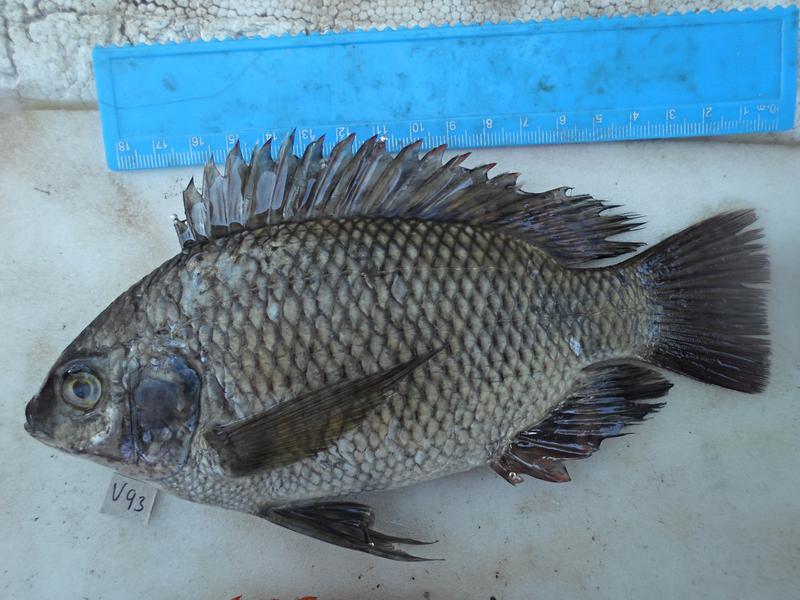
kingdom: Animalia
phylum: Chordata
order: Perciformes
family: Cichlidae
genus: Oreochromis
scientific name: Oreochromis variabilis
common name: Victoria tilapia
